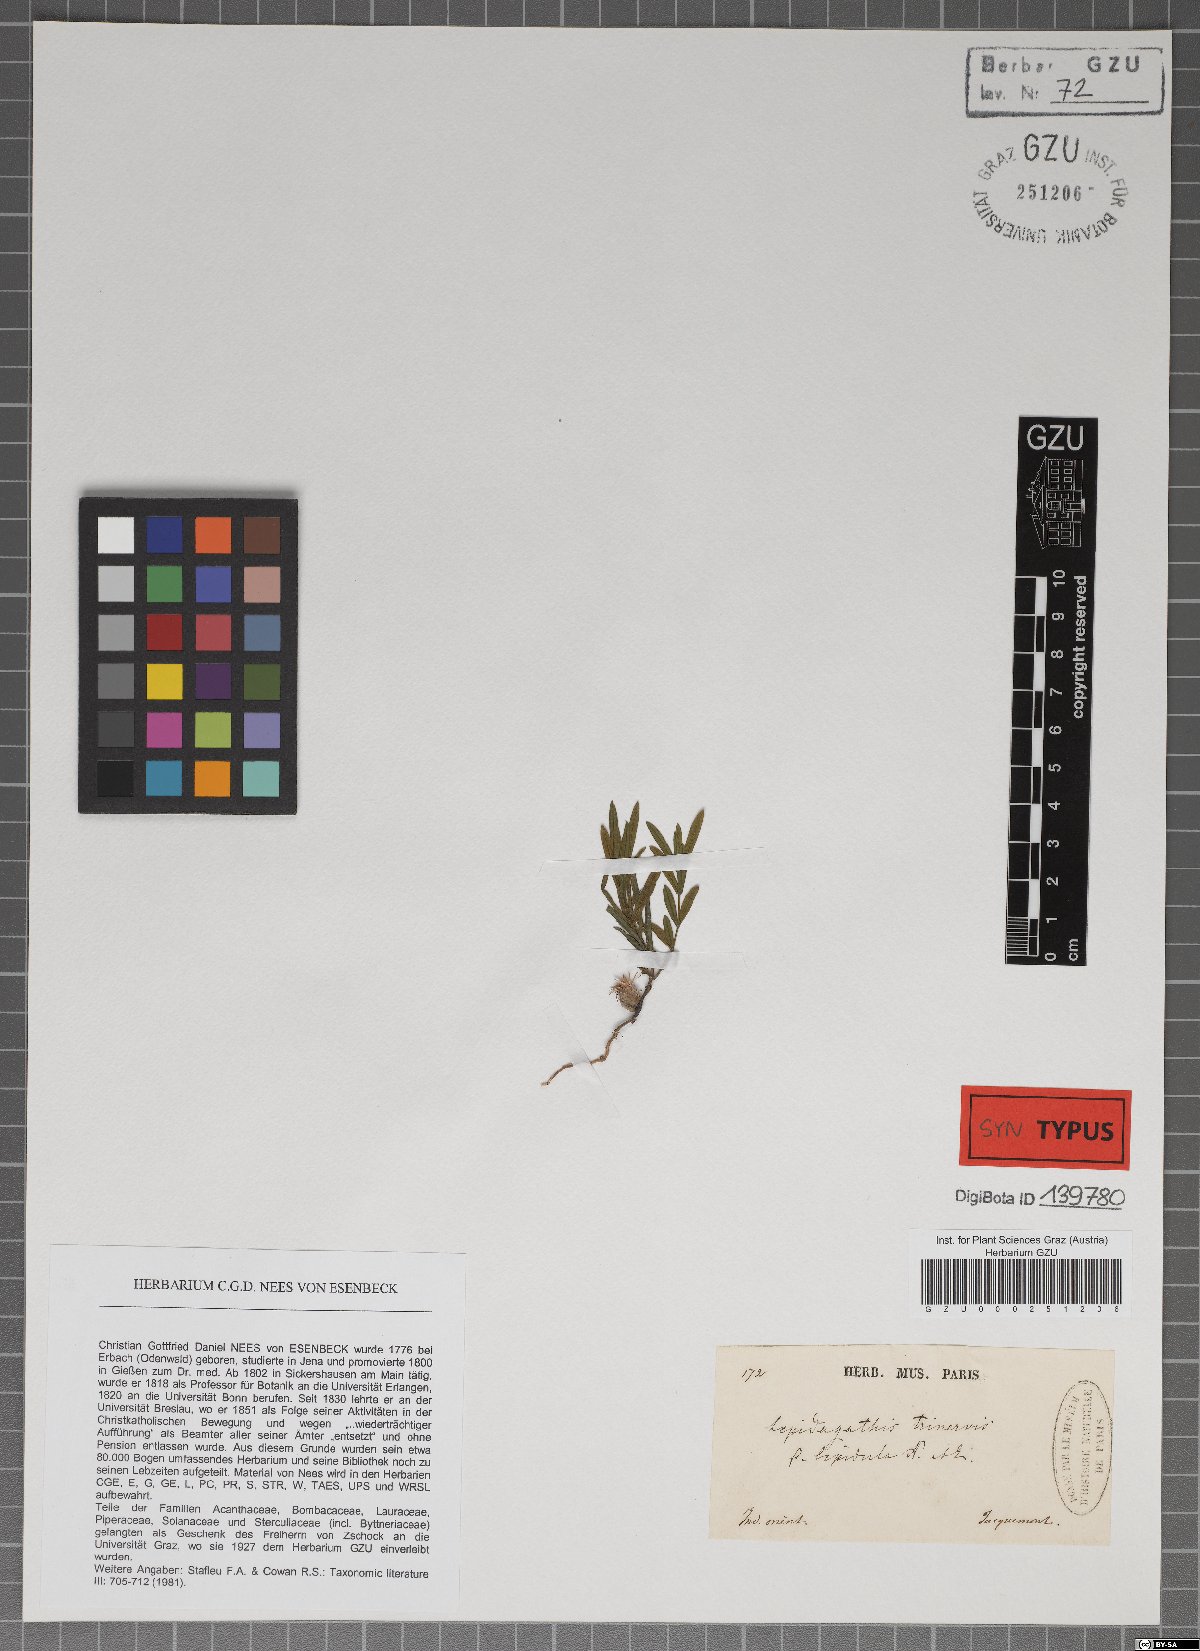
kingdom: Plantae
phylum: Tracheophyta
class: Magnoliopsida
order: Lamiales
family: Acanthaceae
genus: Lepidagathis
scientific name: Lepidagathis trinervis
